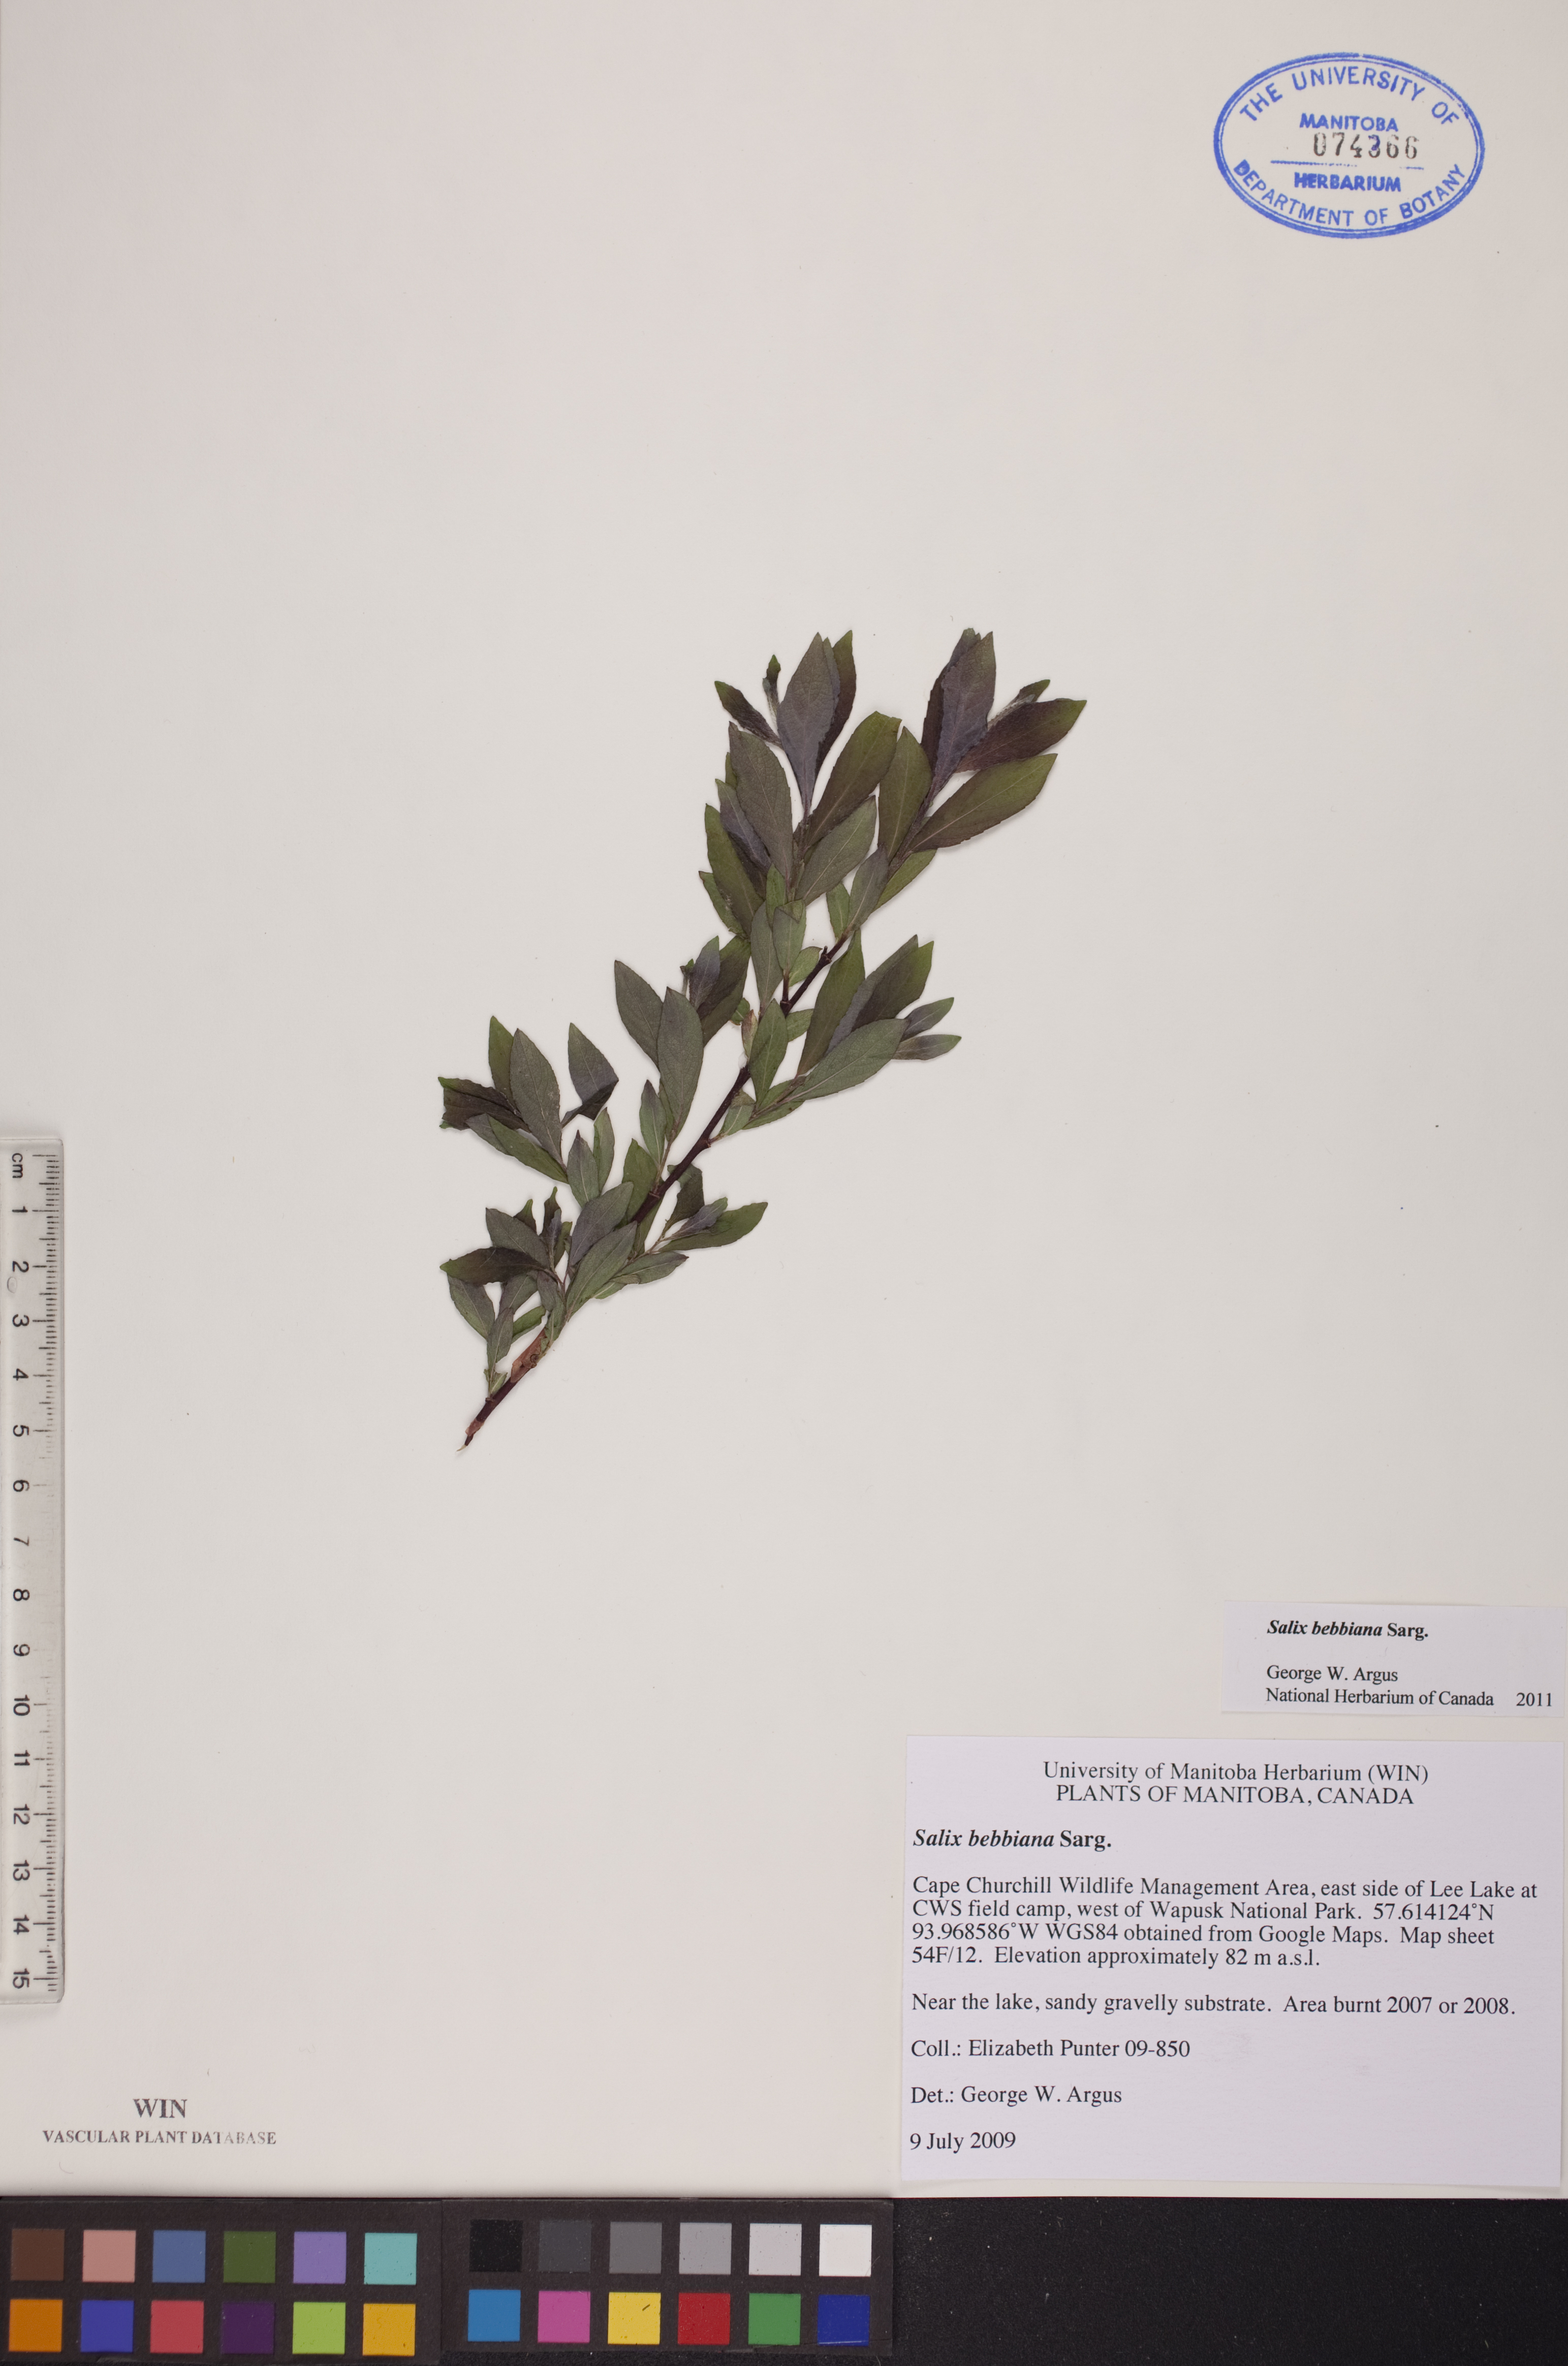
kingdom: Plantae
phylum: Tracheophyta
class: Magnoliopsida
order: Malpighiales
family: Salicaceae
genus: Salix
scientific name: Salix bebbiana
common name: Bebb's willow
